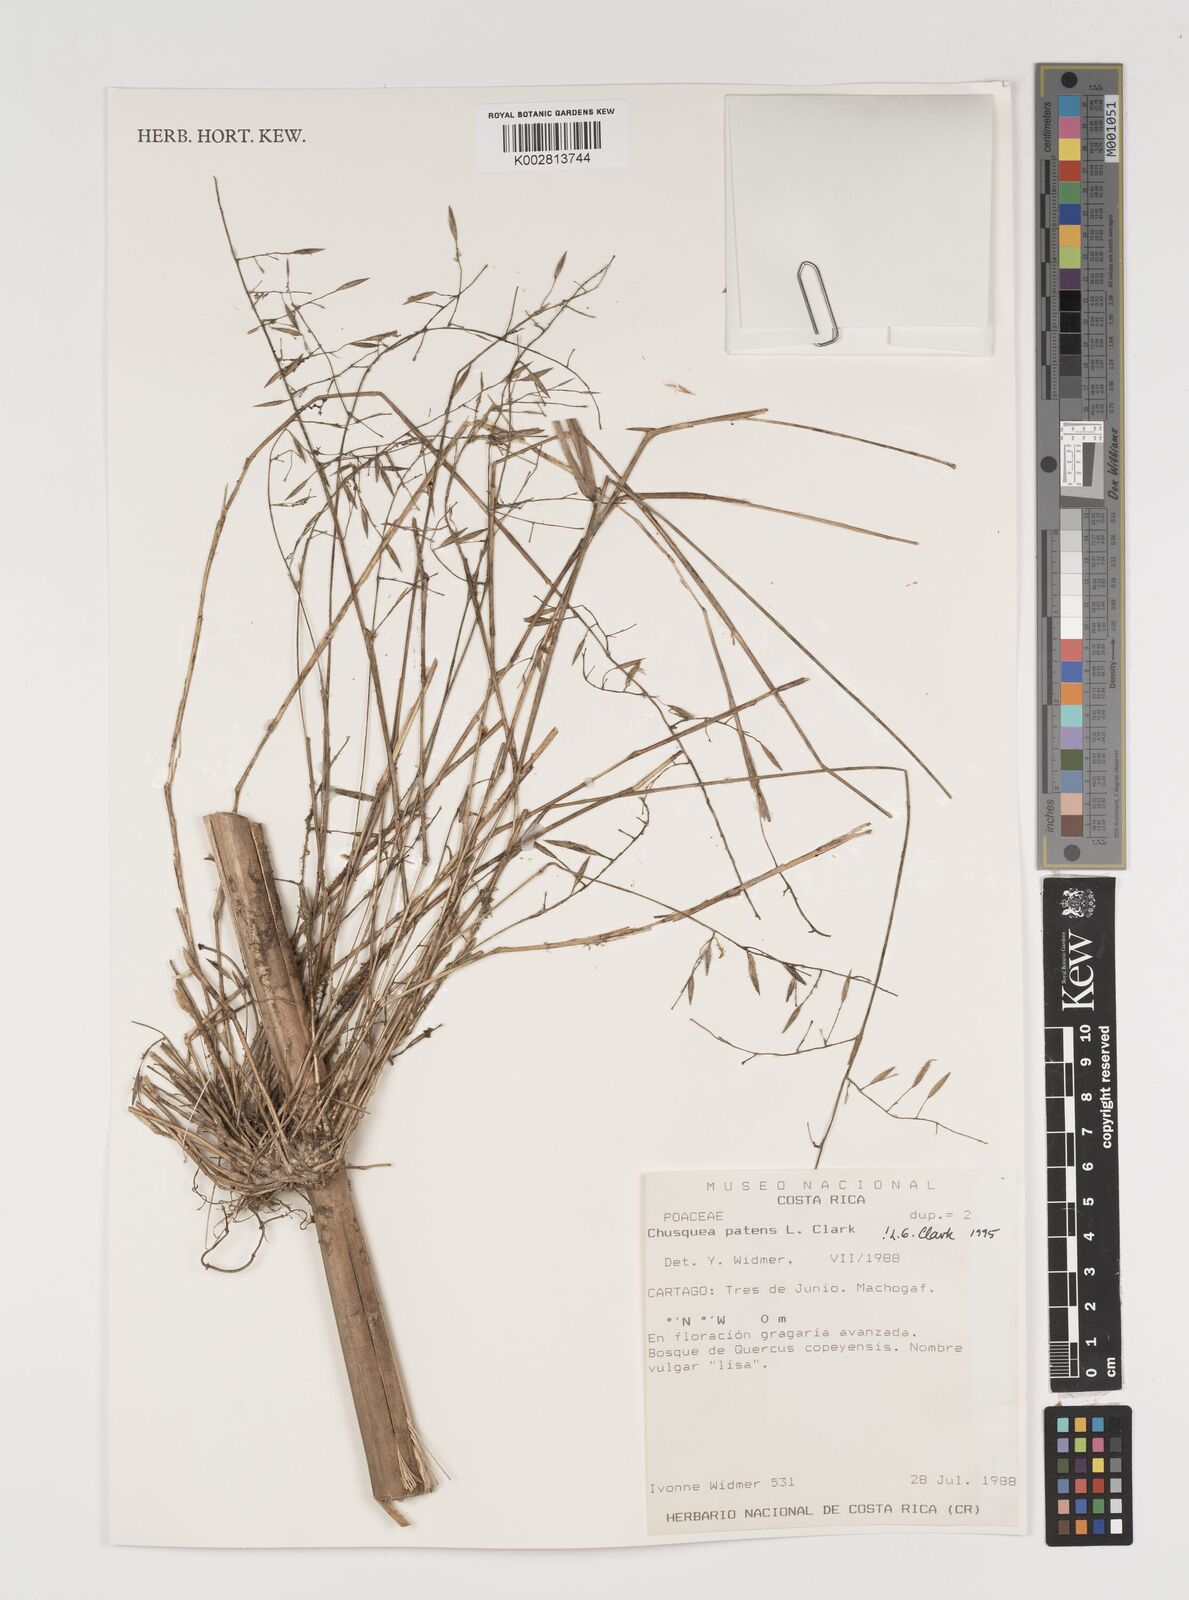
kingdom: Plantae
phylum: Tracheophyta
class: Liliopsida
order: Poales
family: Poaceae
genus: Chusquea
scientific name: Chusquea patens
